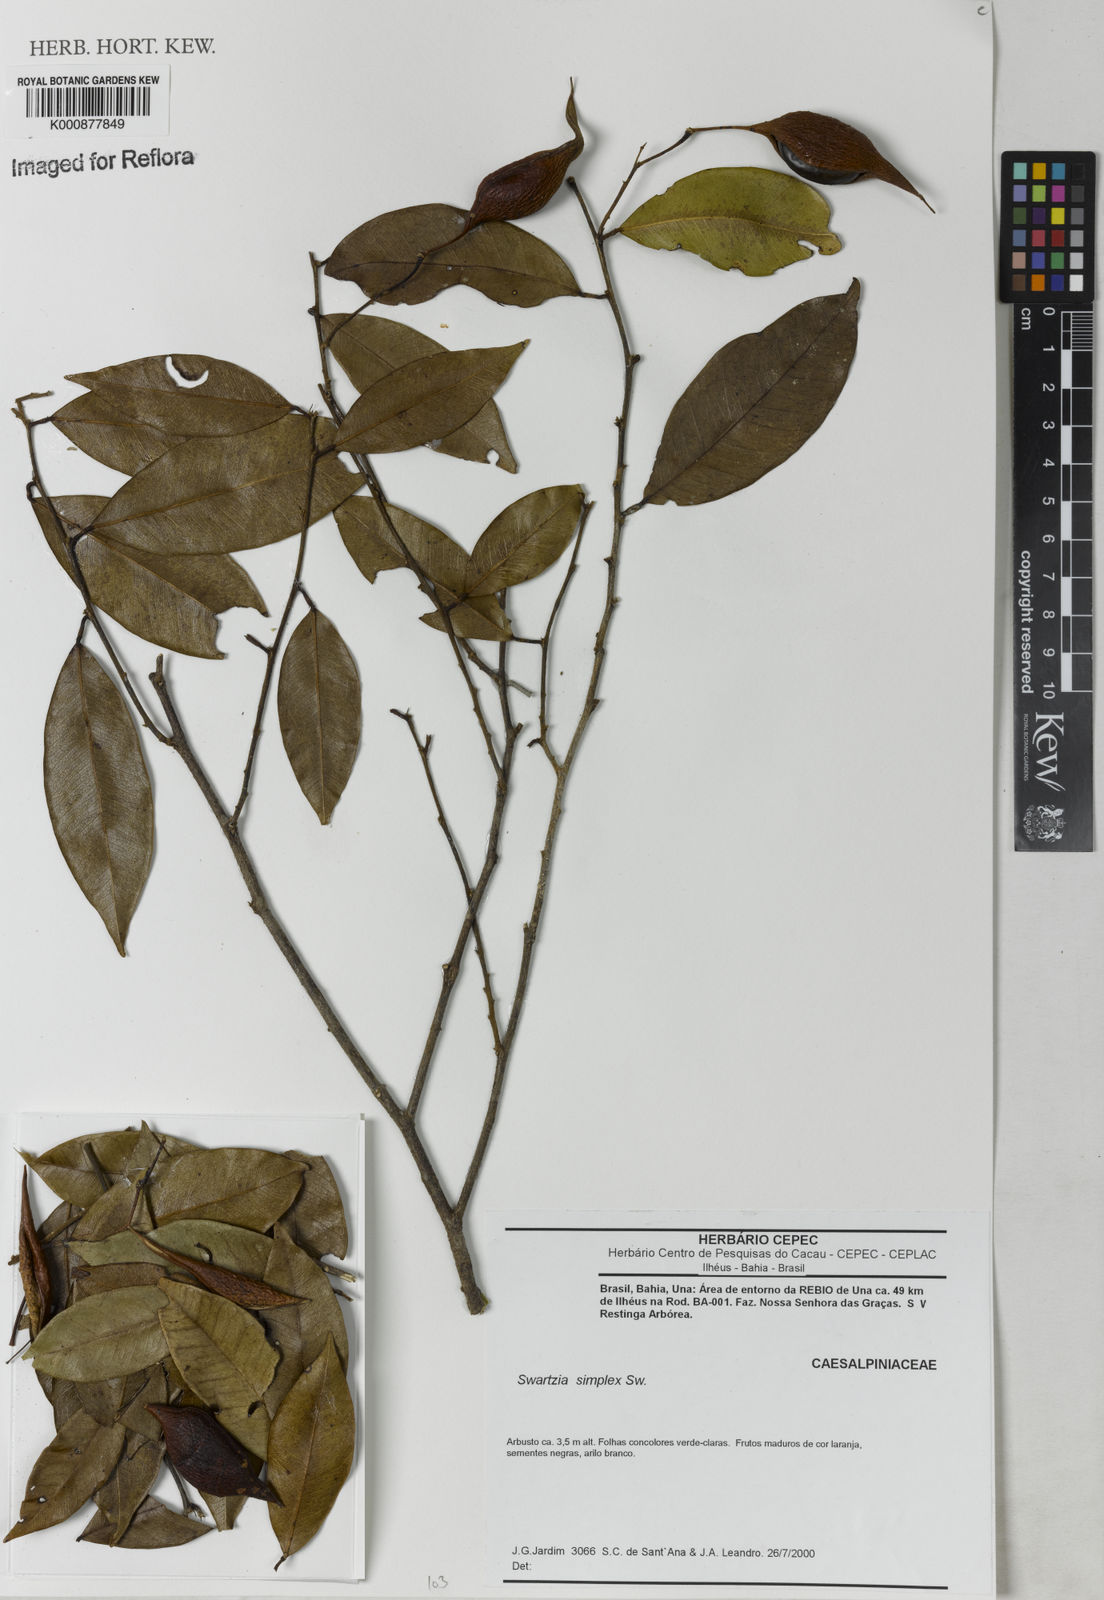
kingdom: Plantae
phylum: Tracheophyta
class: Magnoliopsida
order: Fabales
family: Fabaceae
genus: Swartzia
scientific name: Swartzia simplex
